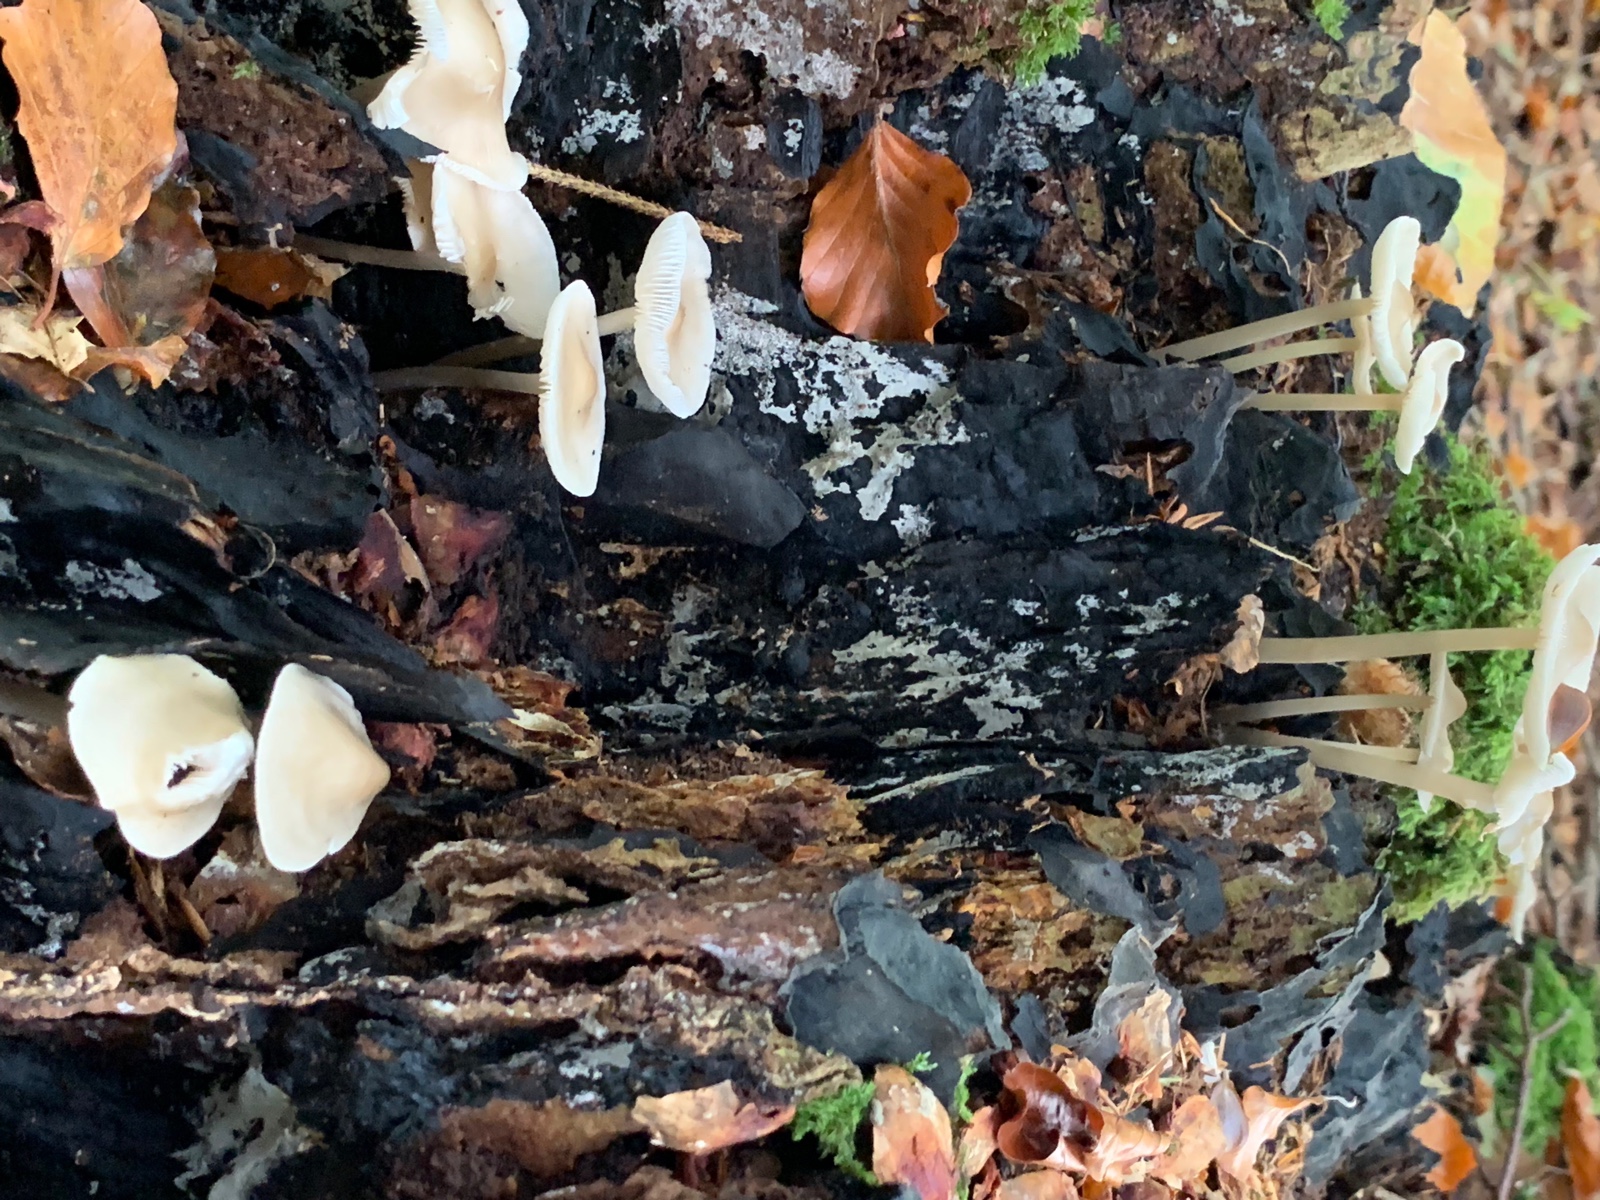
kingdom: Fungi
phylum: Basidiomycota
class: Agaricomycetes
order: Agaricales
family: Mycenaceae
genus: Mycena
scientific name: Mycena galericulata
